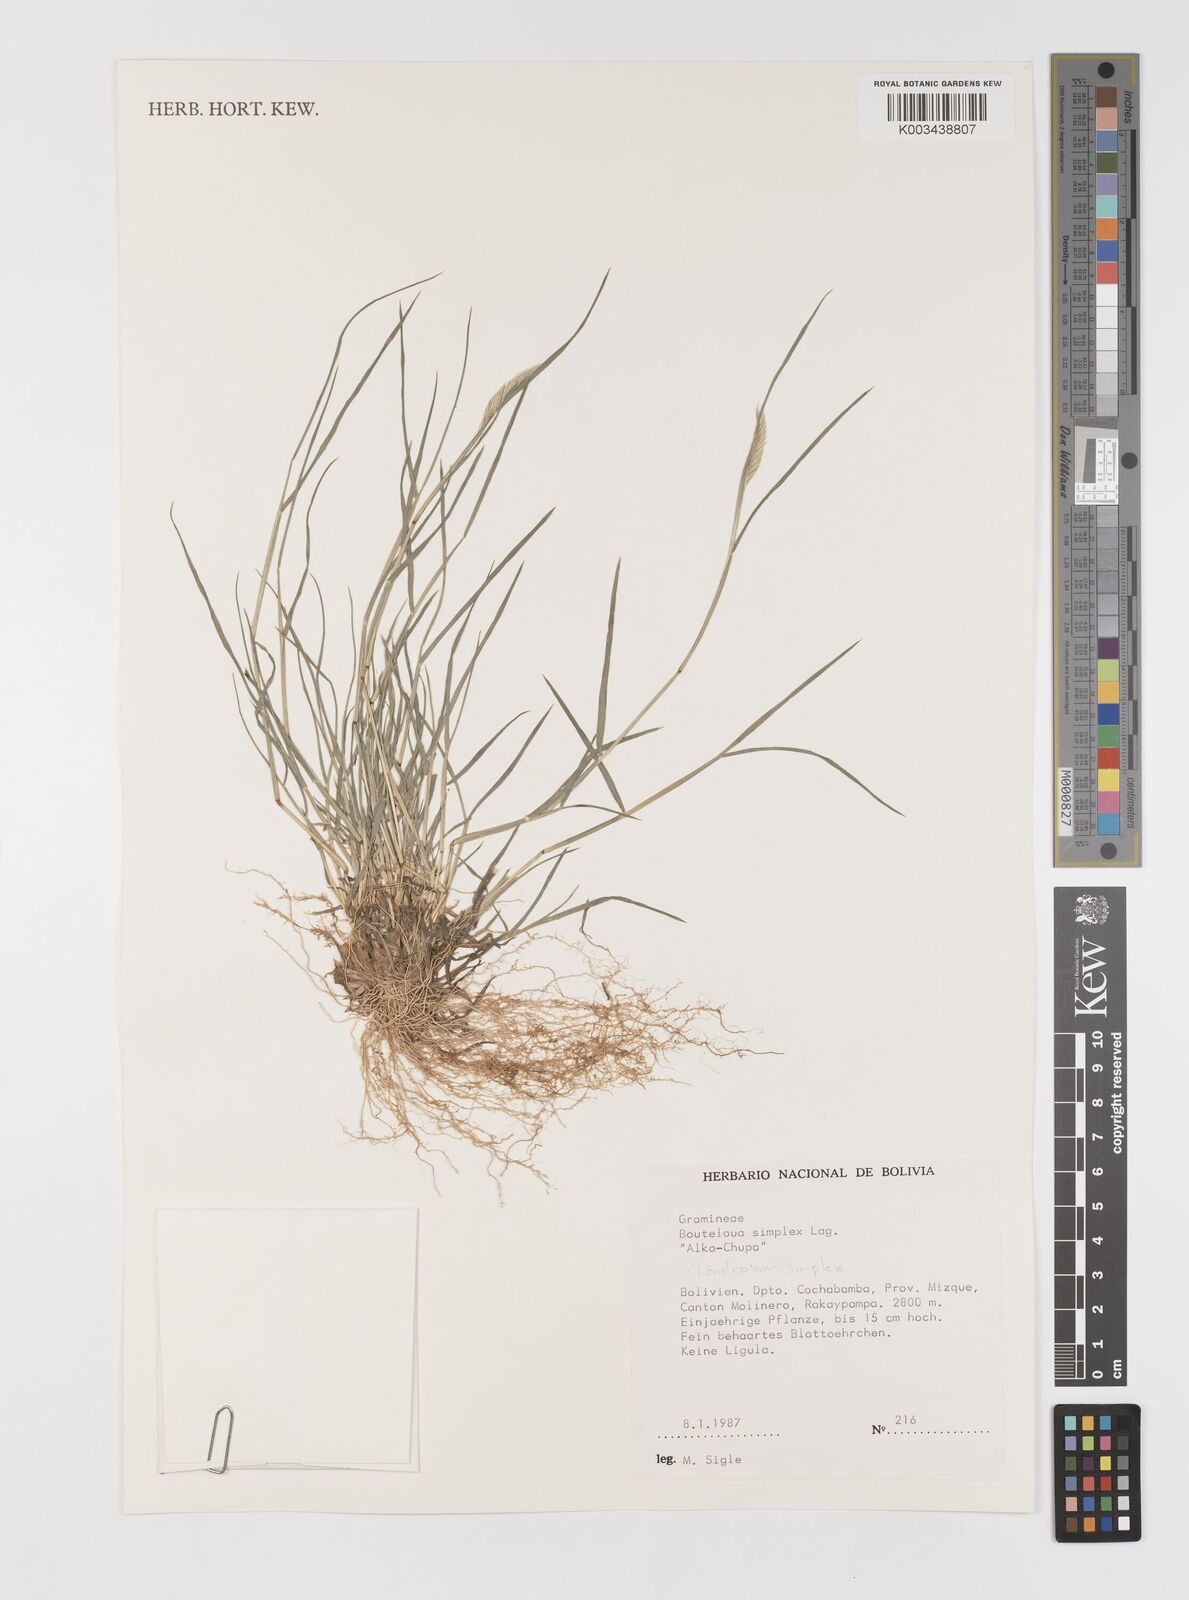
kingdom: Plantae
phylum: Tracheophyta
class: Liliopsida
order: Poales
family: Poaceae
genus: Bouteloua
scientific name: Bouteloua simplex
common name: Mat grama
